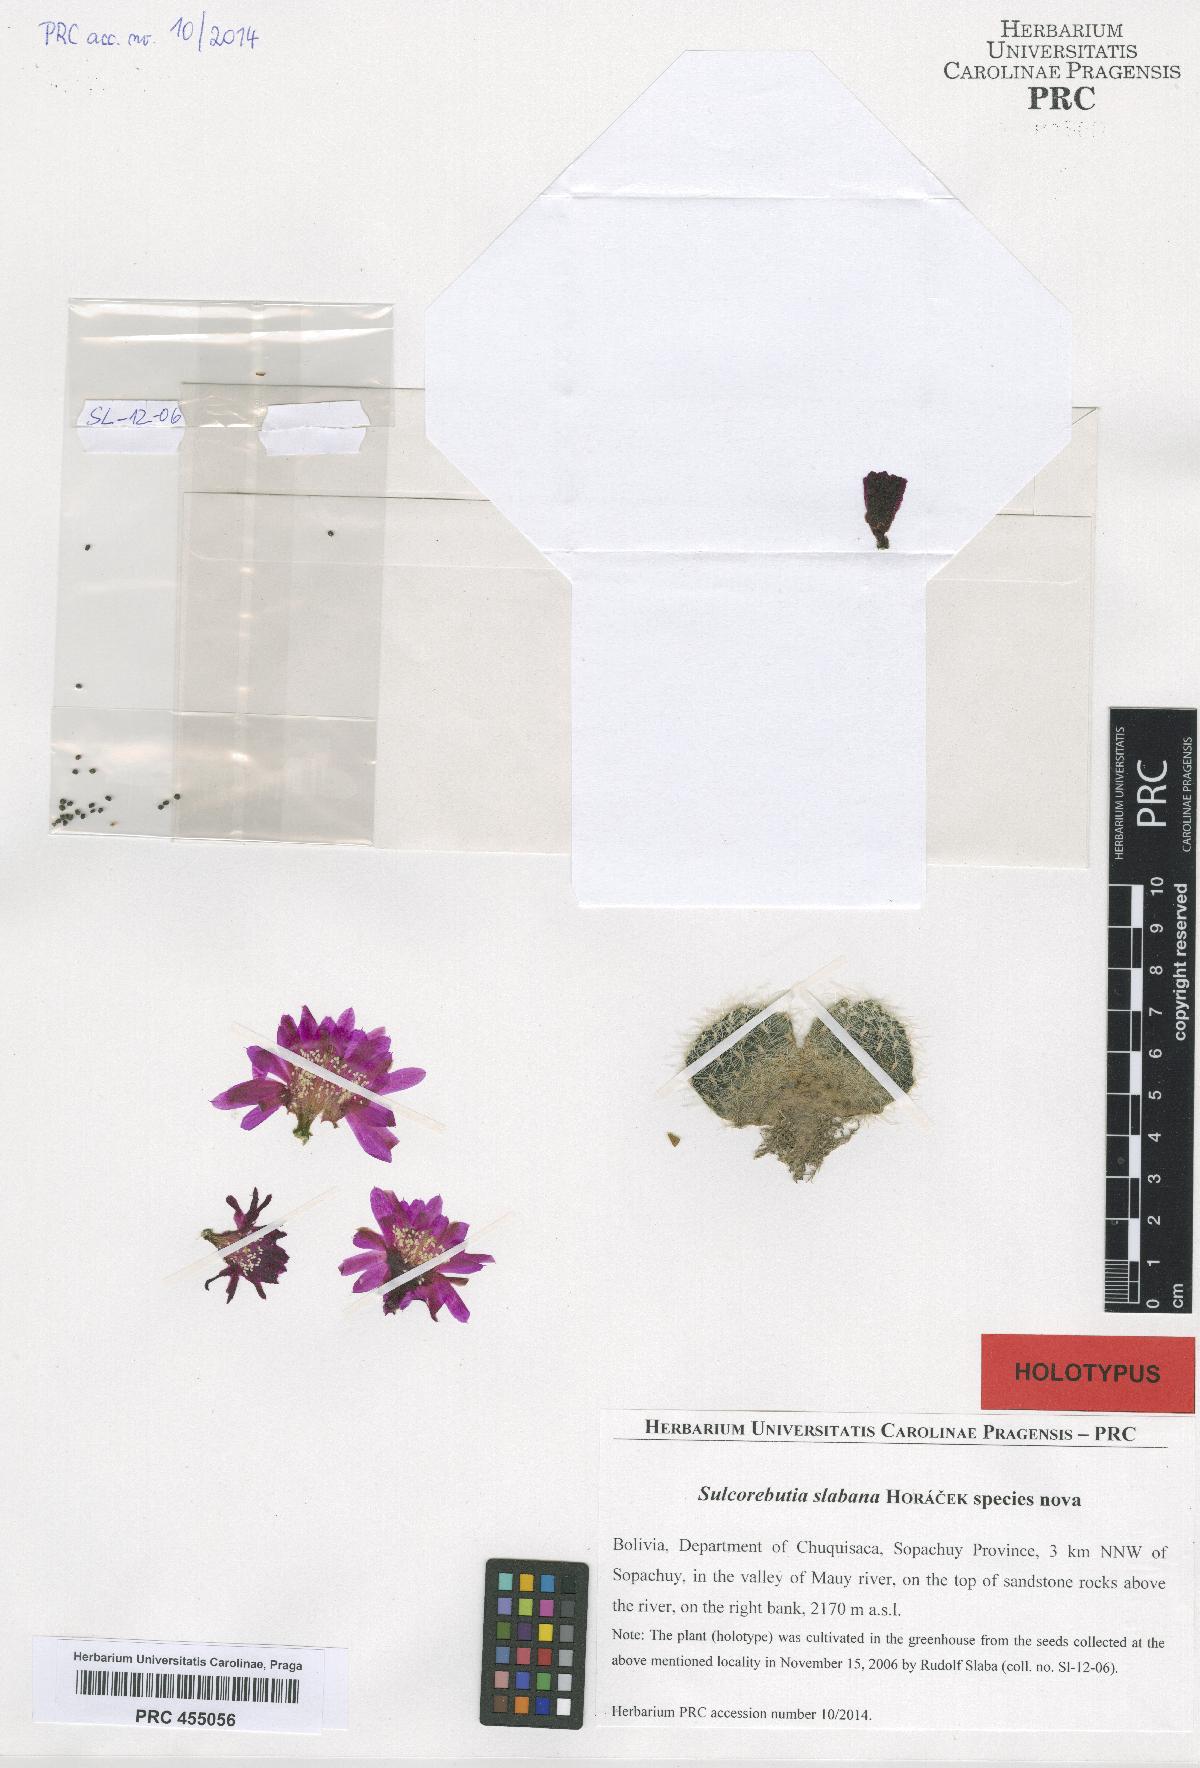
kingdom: Plantae
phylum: Tracheophyta
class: Magnoliopsida
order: Caryophyllales
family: Cactaceae
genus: Weingartia
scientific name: Weingartia canigueralii
